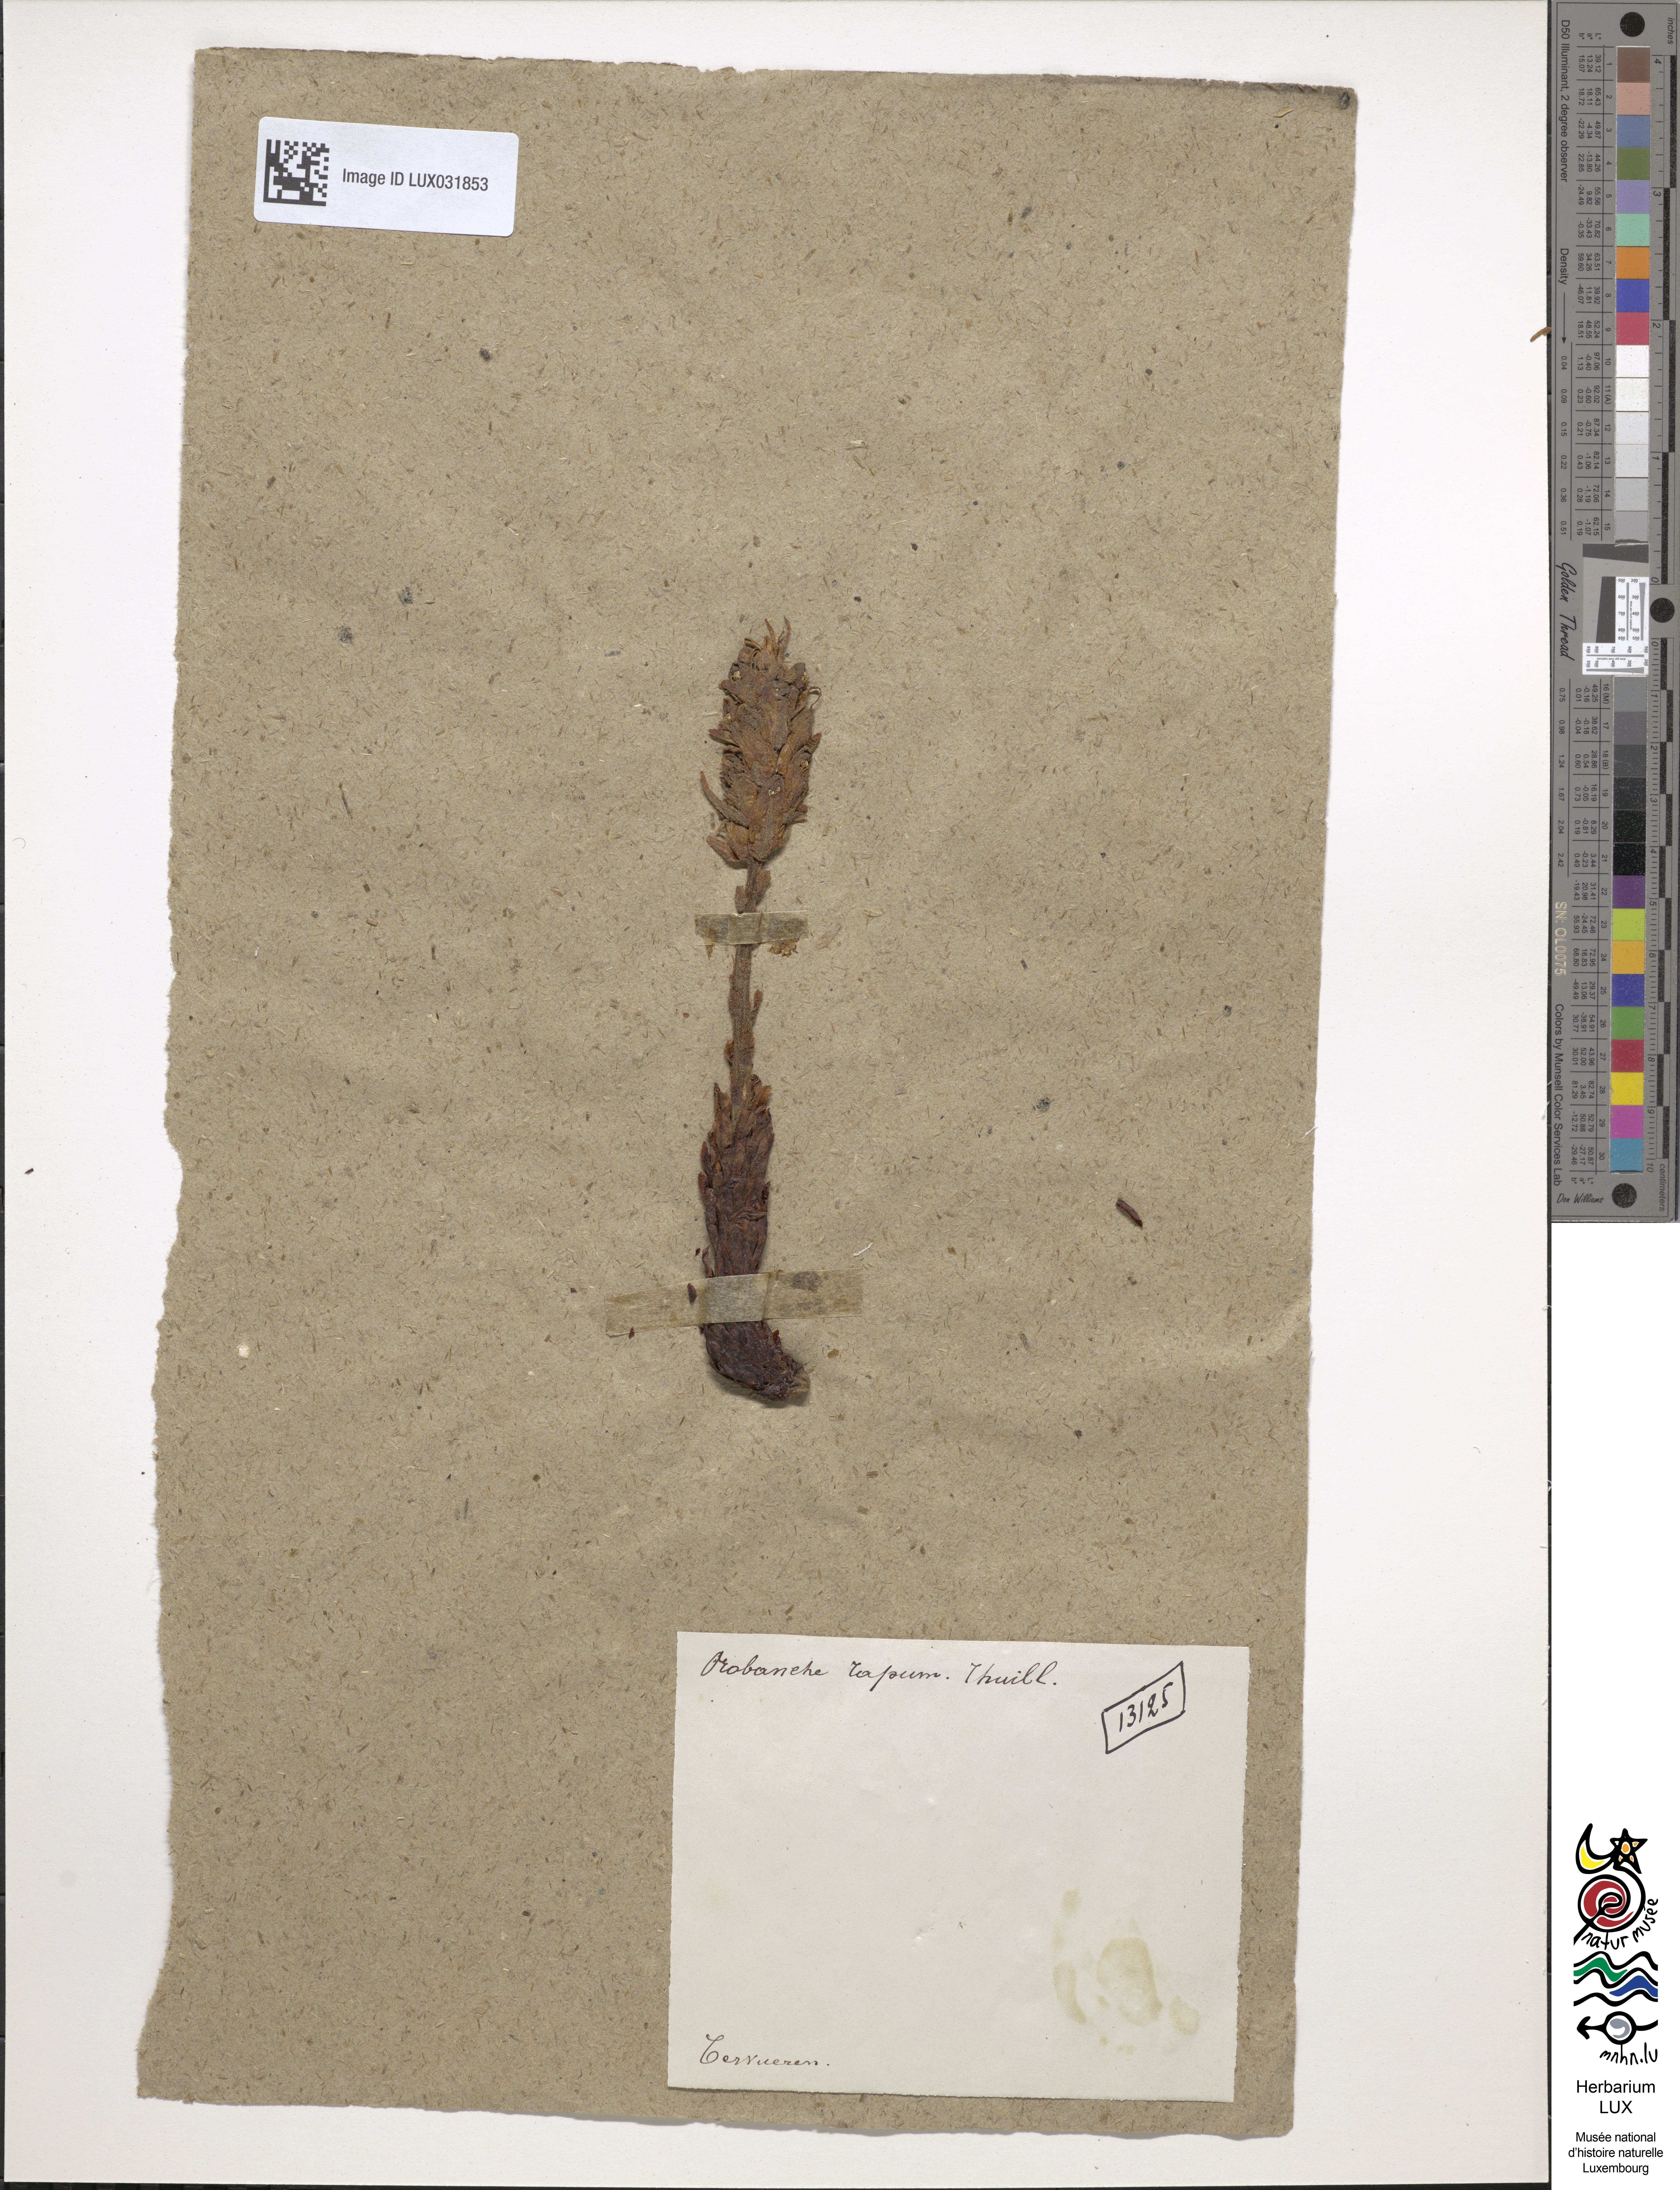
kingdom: Plantae
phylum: Tracheophyta
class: Magnoliopsida
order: Lamiales
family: Orobanchaceae
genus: Orobanche
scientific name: Orobanche rapum-genistae
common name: Greater broomrape
